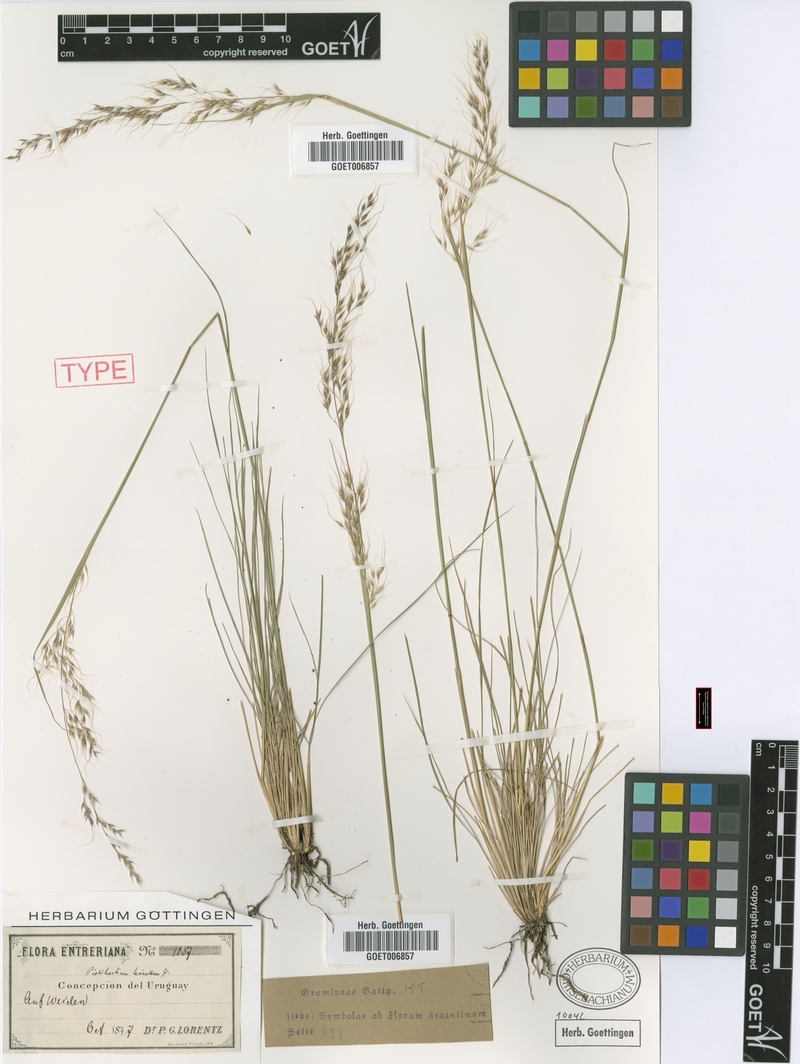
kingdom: Plantae
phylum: Tracheophyta
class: Liliopsida
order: Poales
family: Poaceae
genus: Piptochaetium
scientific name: Piptochaetium lasianthum
